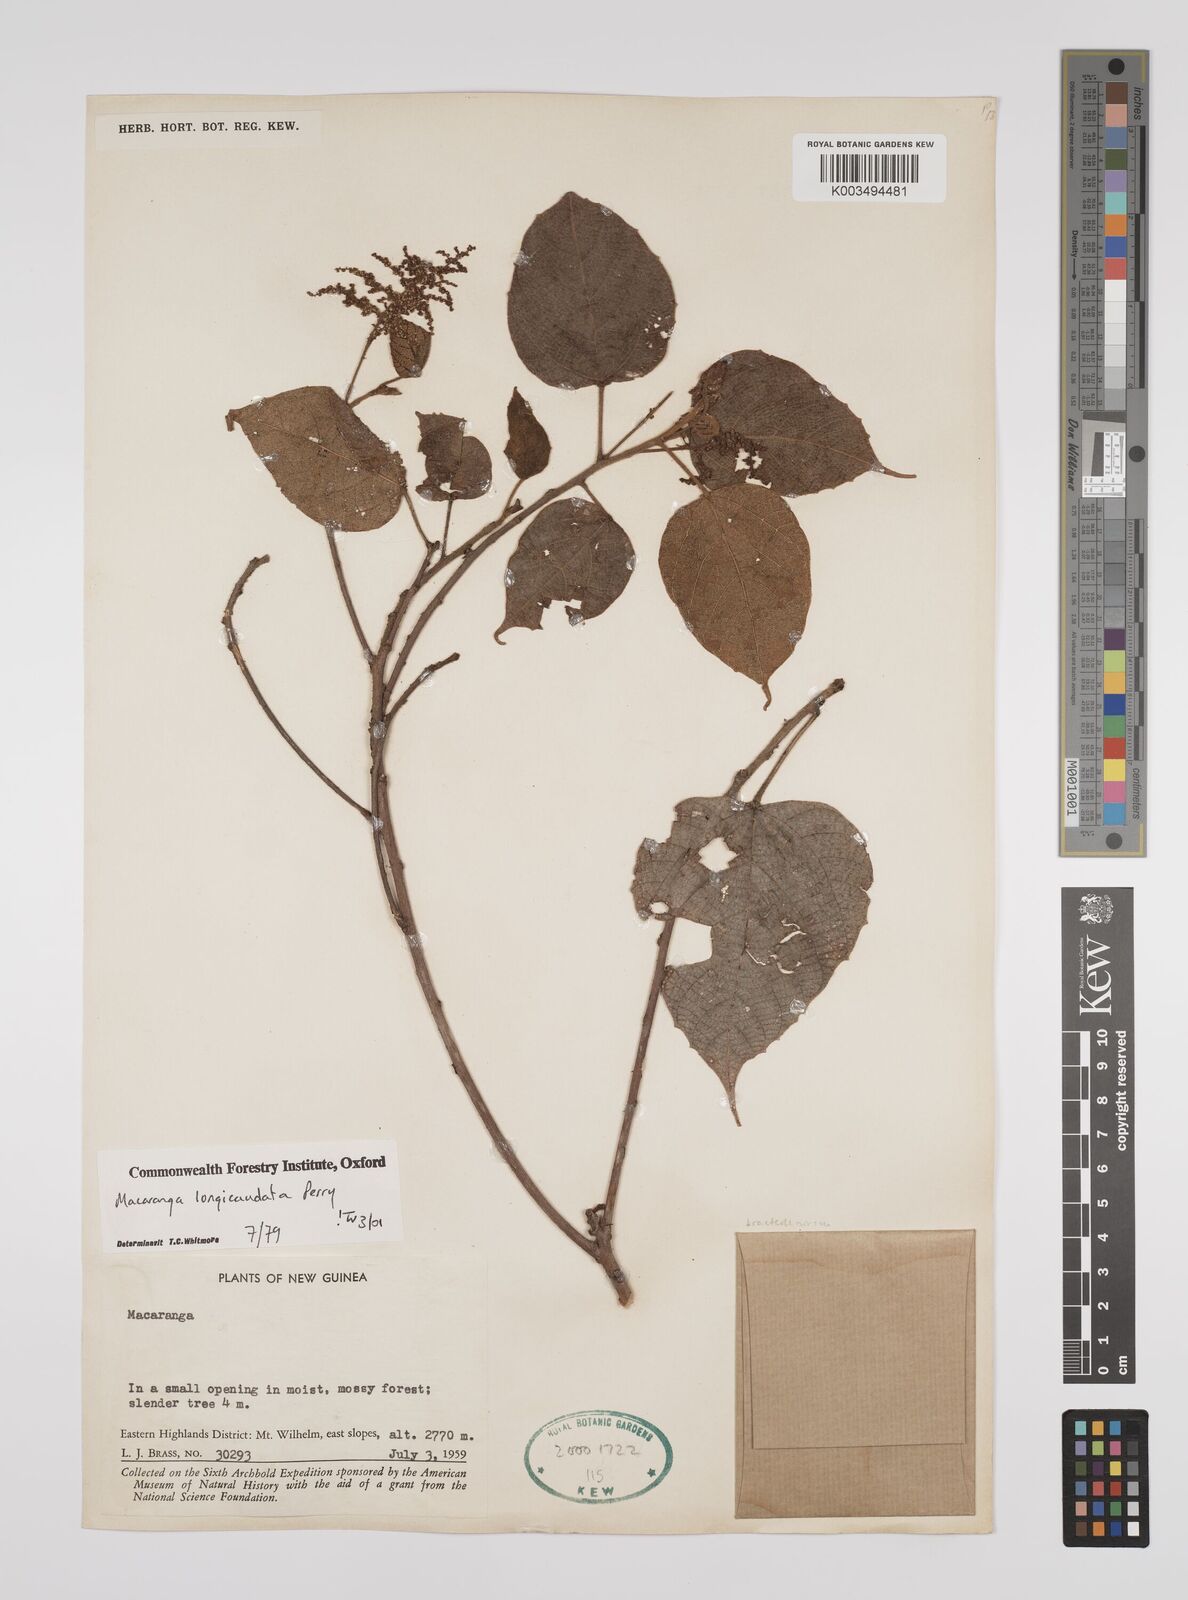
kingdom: Plantae
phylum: Tracheophyta
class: Magnoliopsida
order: Malpighiales
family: Euphorbiaceae
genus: Macaranga
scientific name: Macaranga longicaudata
